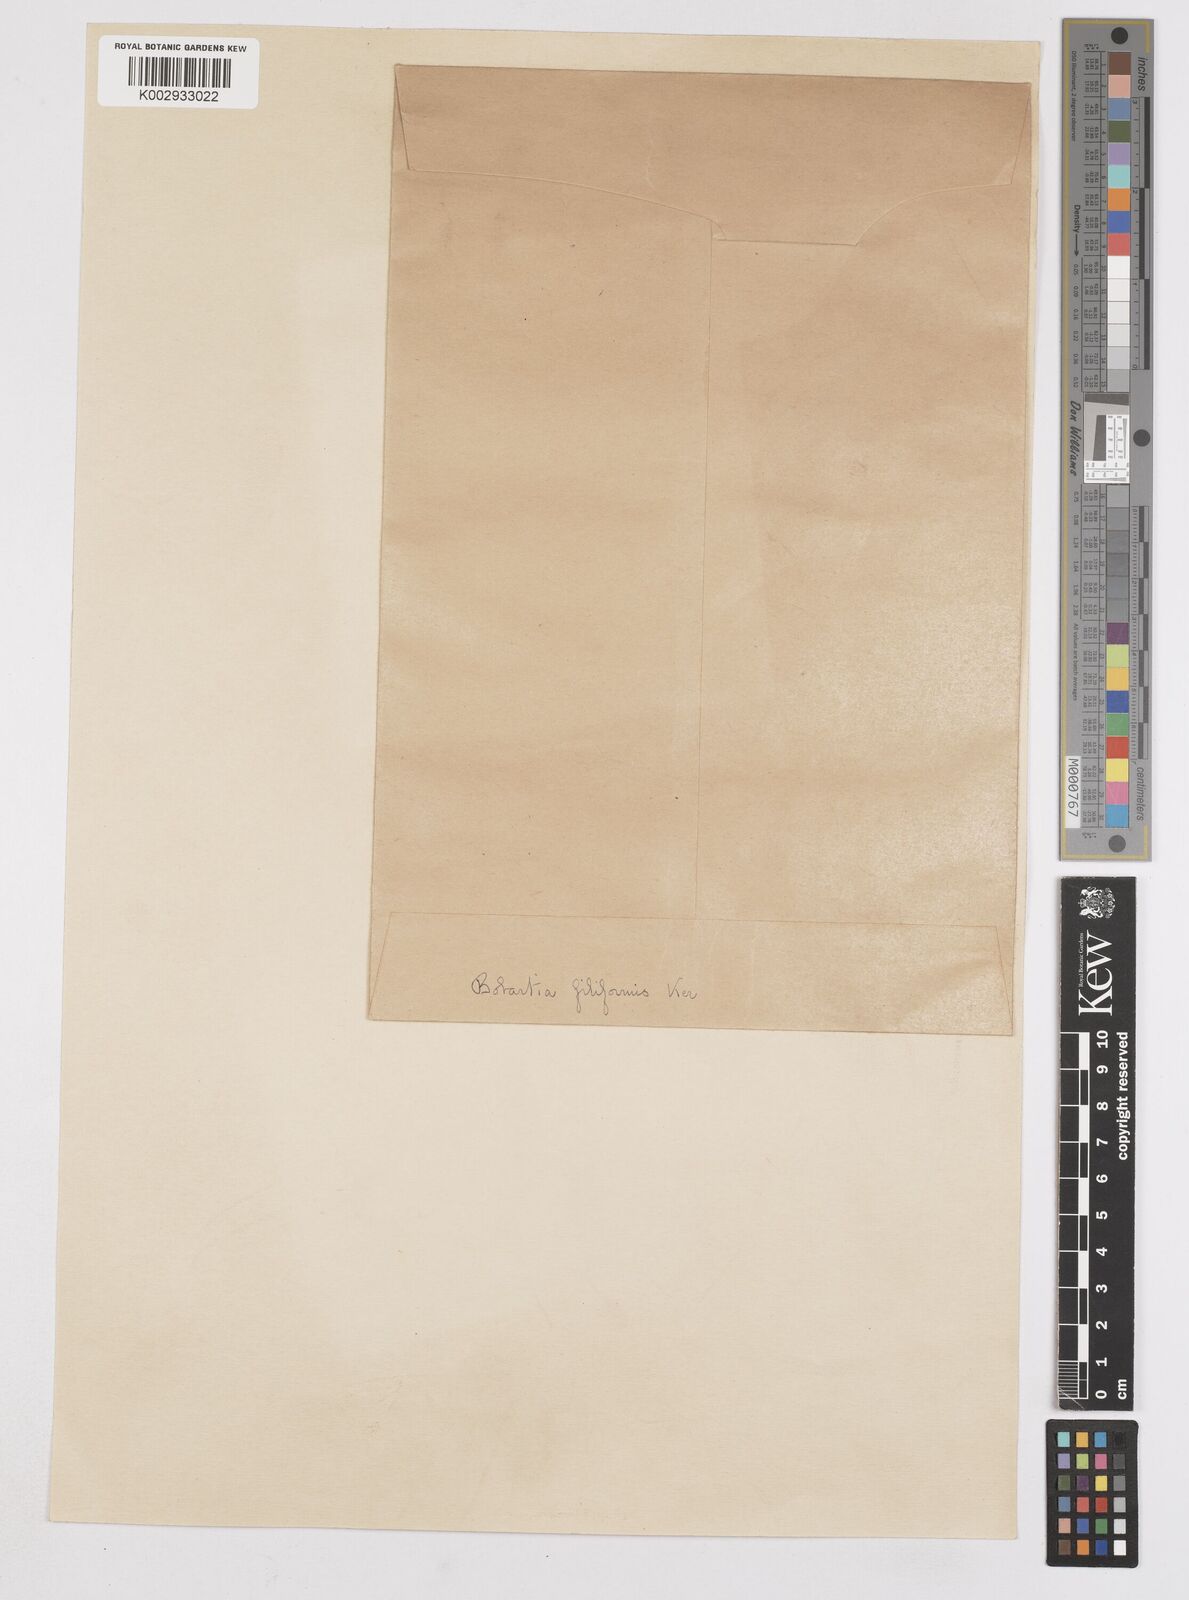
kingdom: Plantae
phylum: Tracheophyta
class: Liliopsida
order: Asparagales
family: Iridaceae
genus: Bobartia
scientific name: Bobartia filiformis
